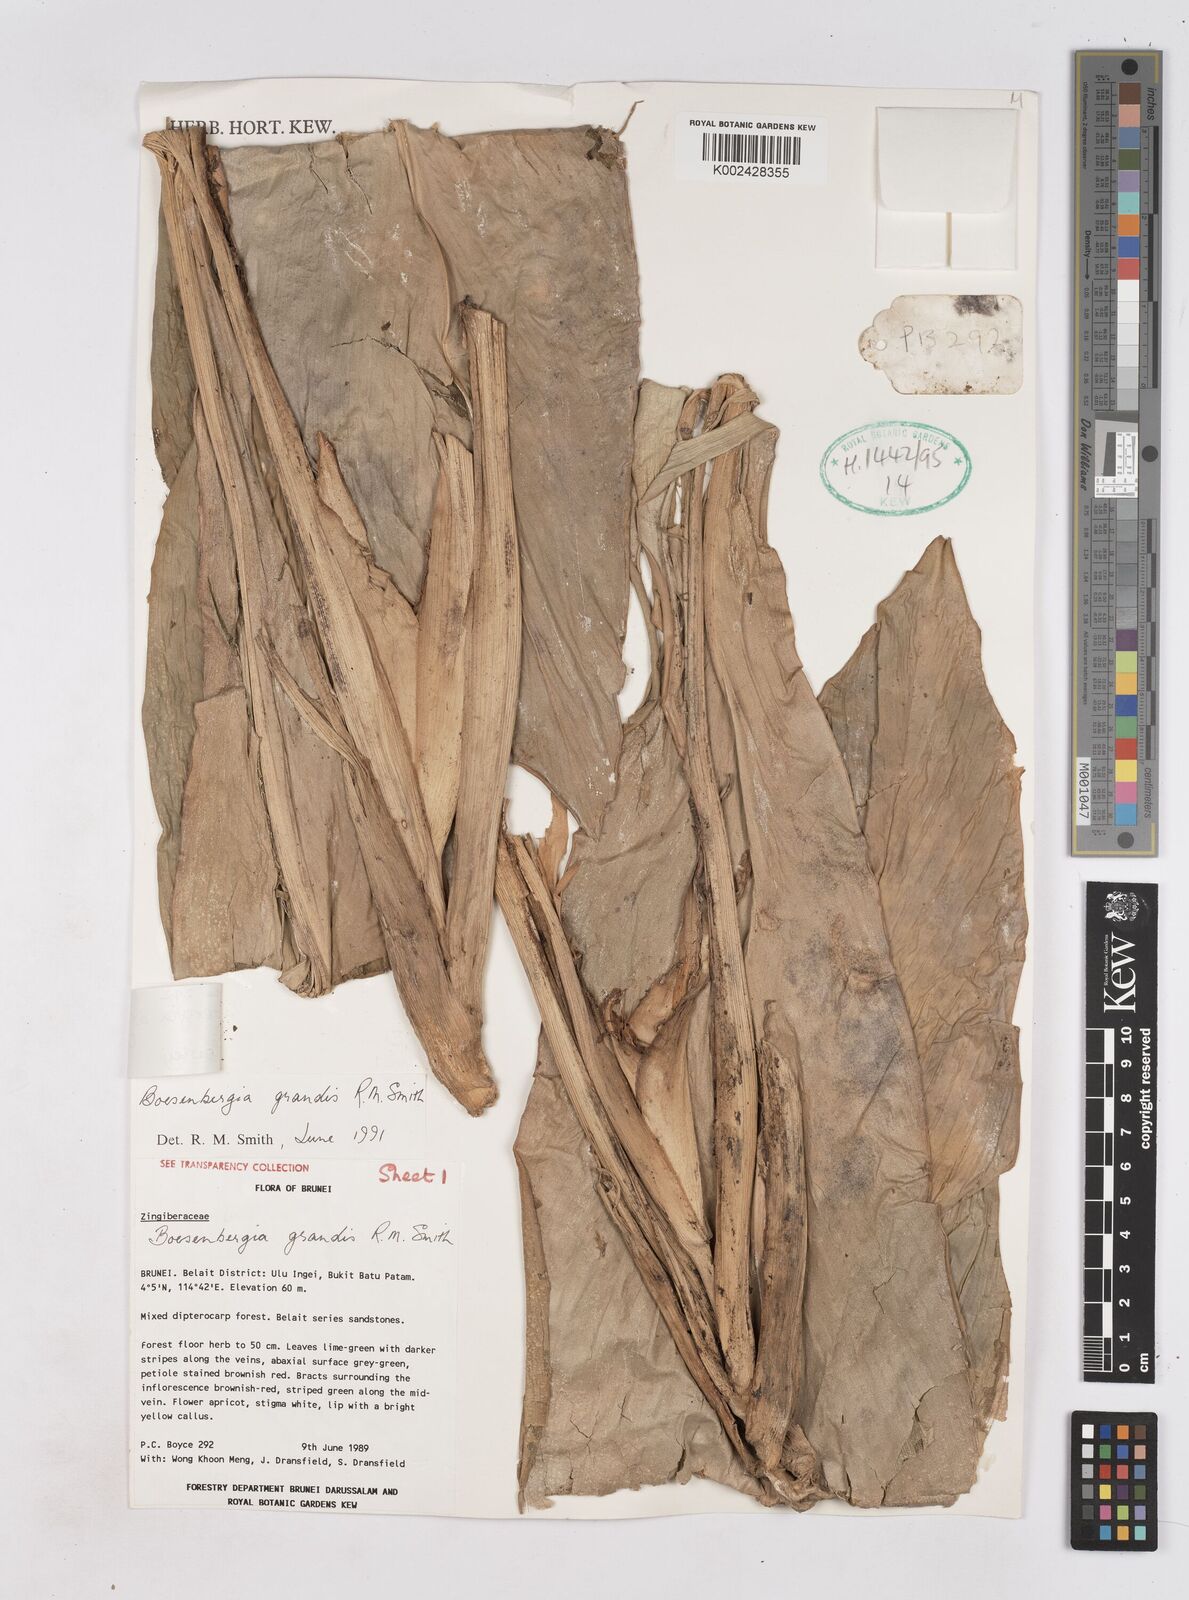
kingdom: Plantae
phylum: Tracheophyta
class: Liliopsida
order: Zingiberales
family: Zingiberaceae
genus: Boesenbergia
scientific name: Boesenbergia armeniaca
